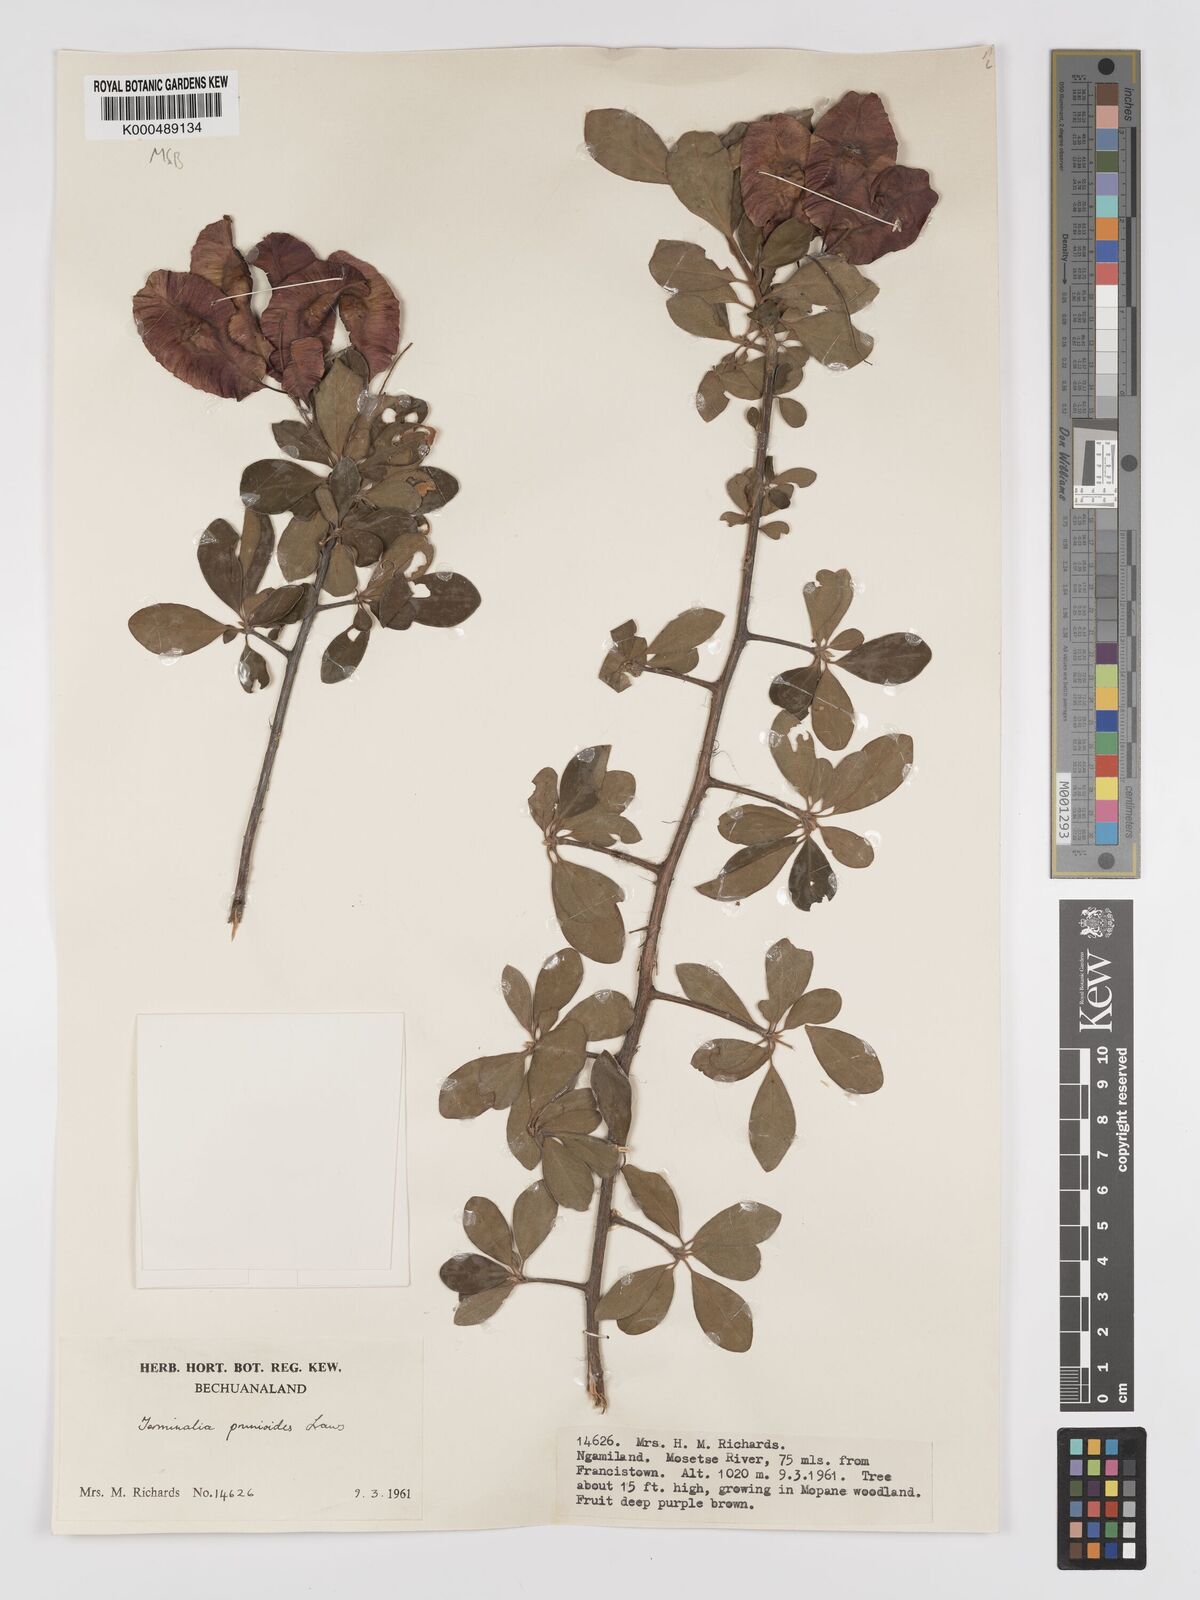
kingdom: Plantae
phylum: Tracheophyta
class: Magnoliopsida
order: Myrtales
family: Combretaceae
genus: Terminalia
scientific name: Terminalia prunioides
